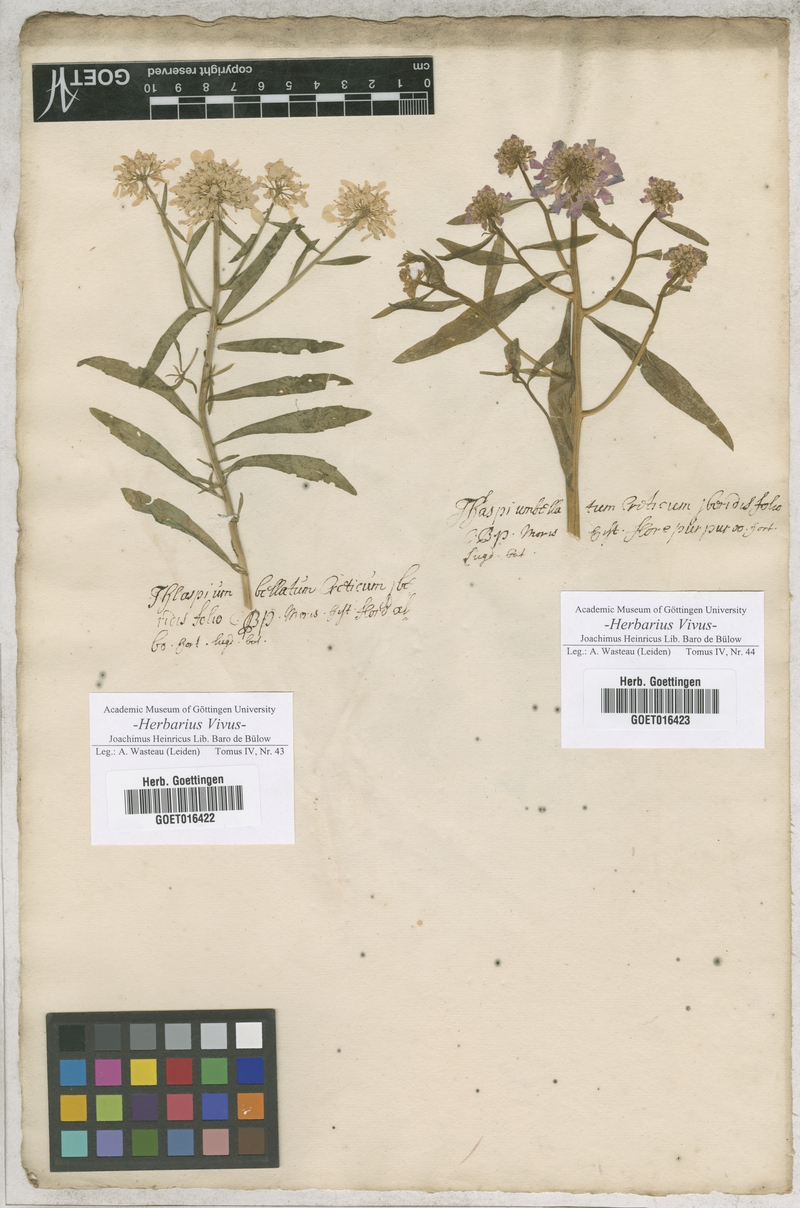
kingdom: Plantae
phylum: Tracheophyta
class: Magnoliopsida
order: Brassicales
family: Brassicaceae
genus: Iberis
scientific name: Iberis umbellata
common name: Globe candytuft
